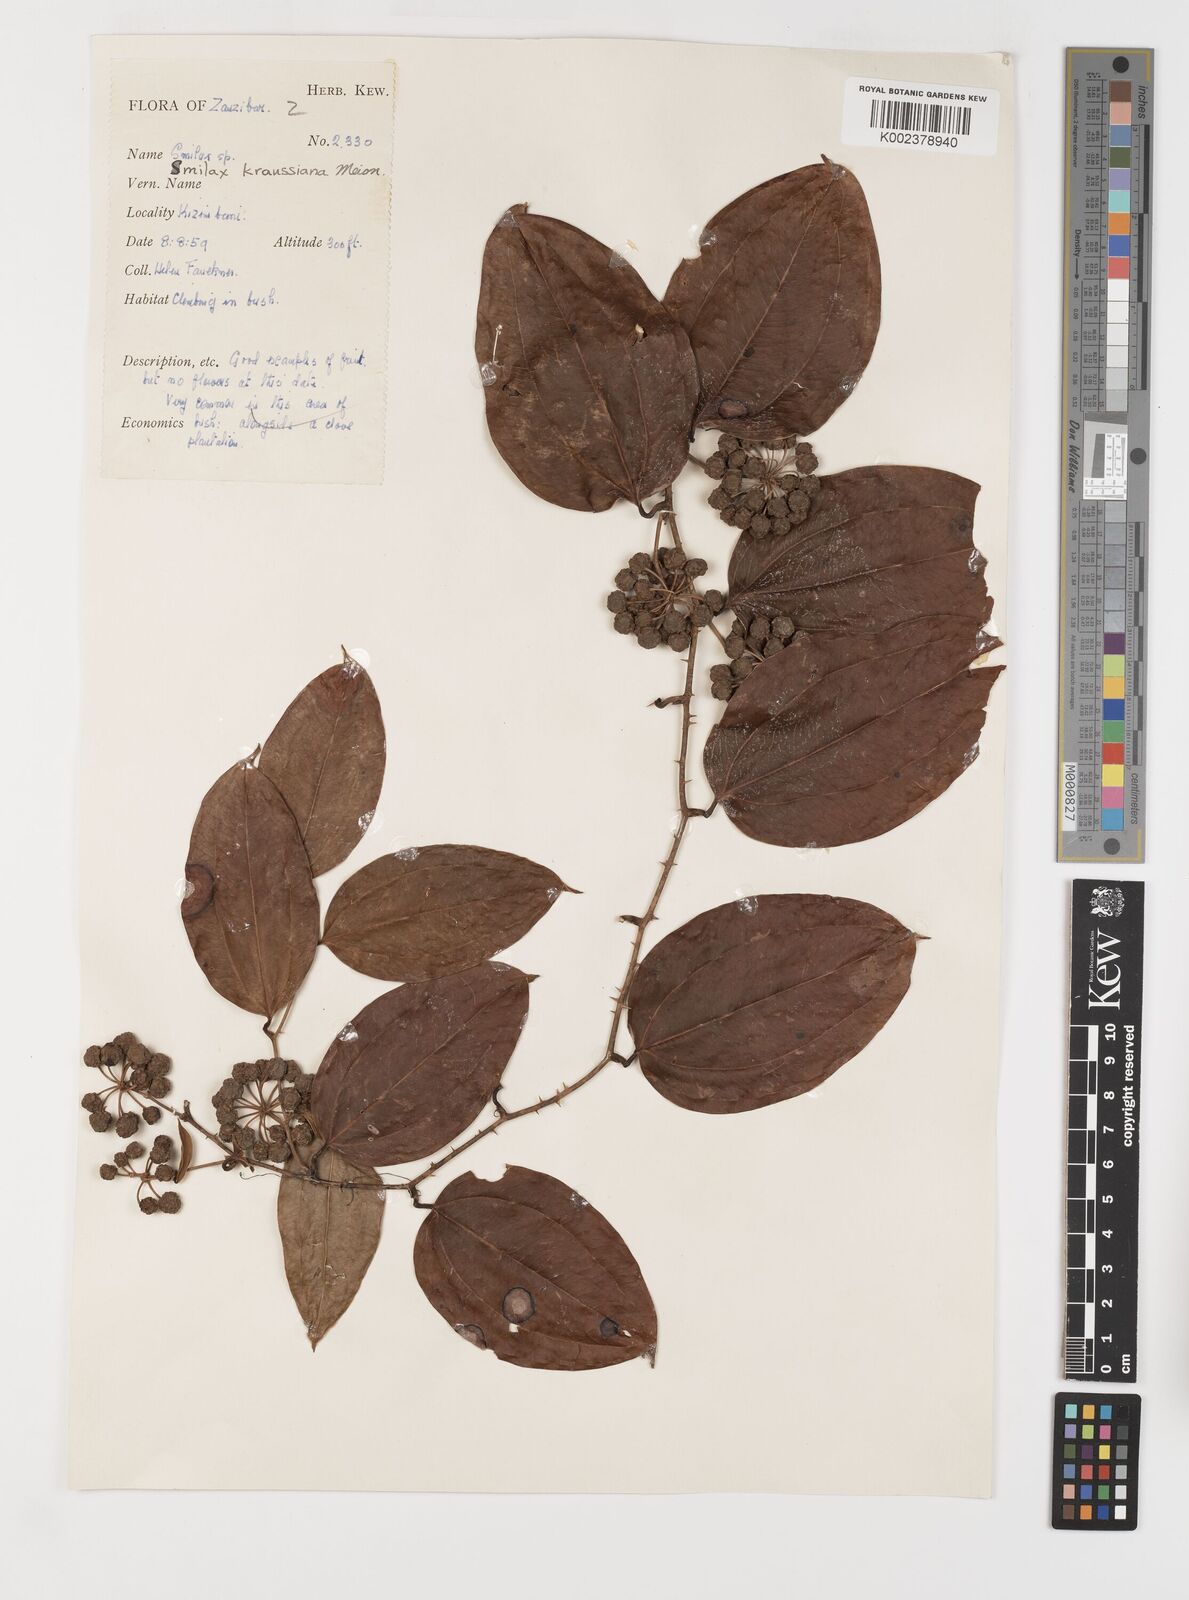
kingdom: Plantae
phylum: Tracheophyta
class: Liliopsida
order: Liliales
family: Smilacaceae
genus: Smilax
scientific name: Smilax anceps
